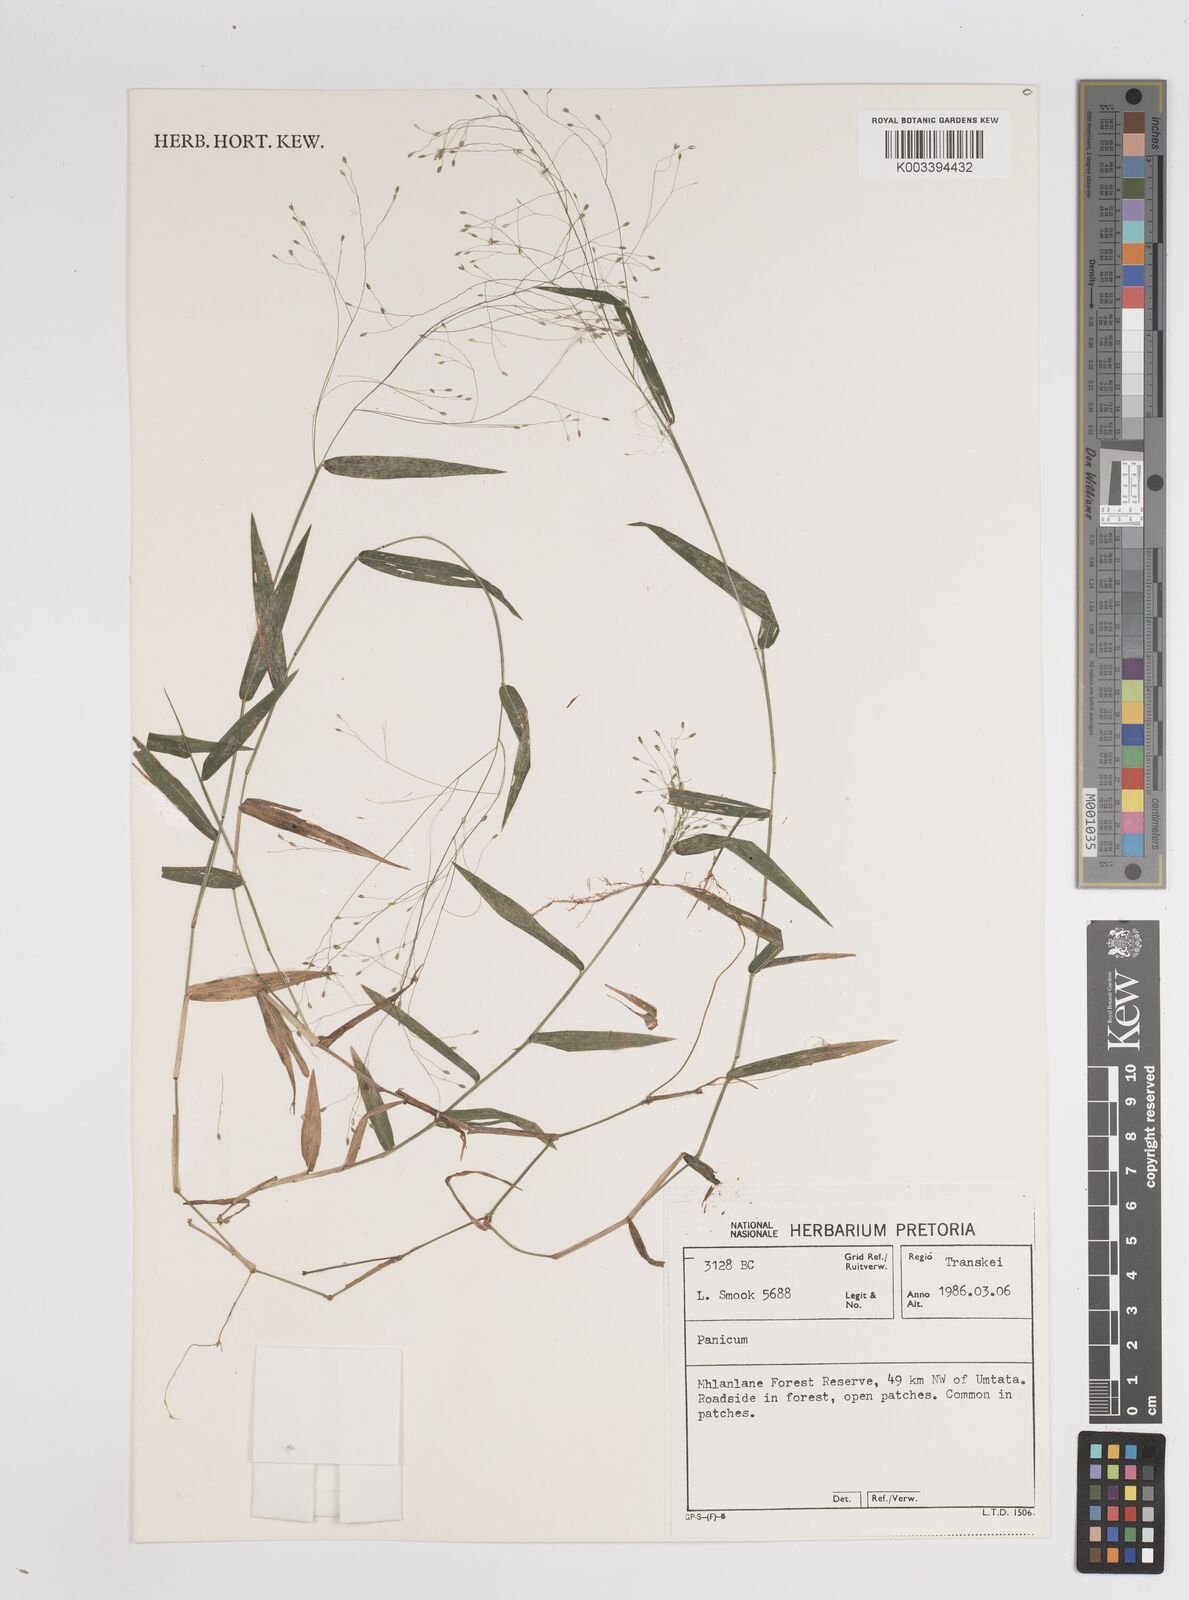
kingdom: Plantae
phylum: Tracheophyta
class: Liliopsida
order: Poales
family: Poaceae
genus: Panicum
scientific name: Panicum
